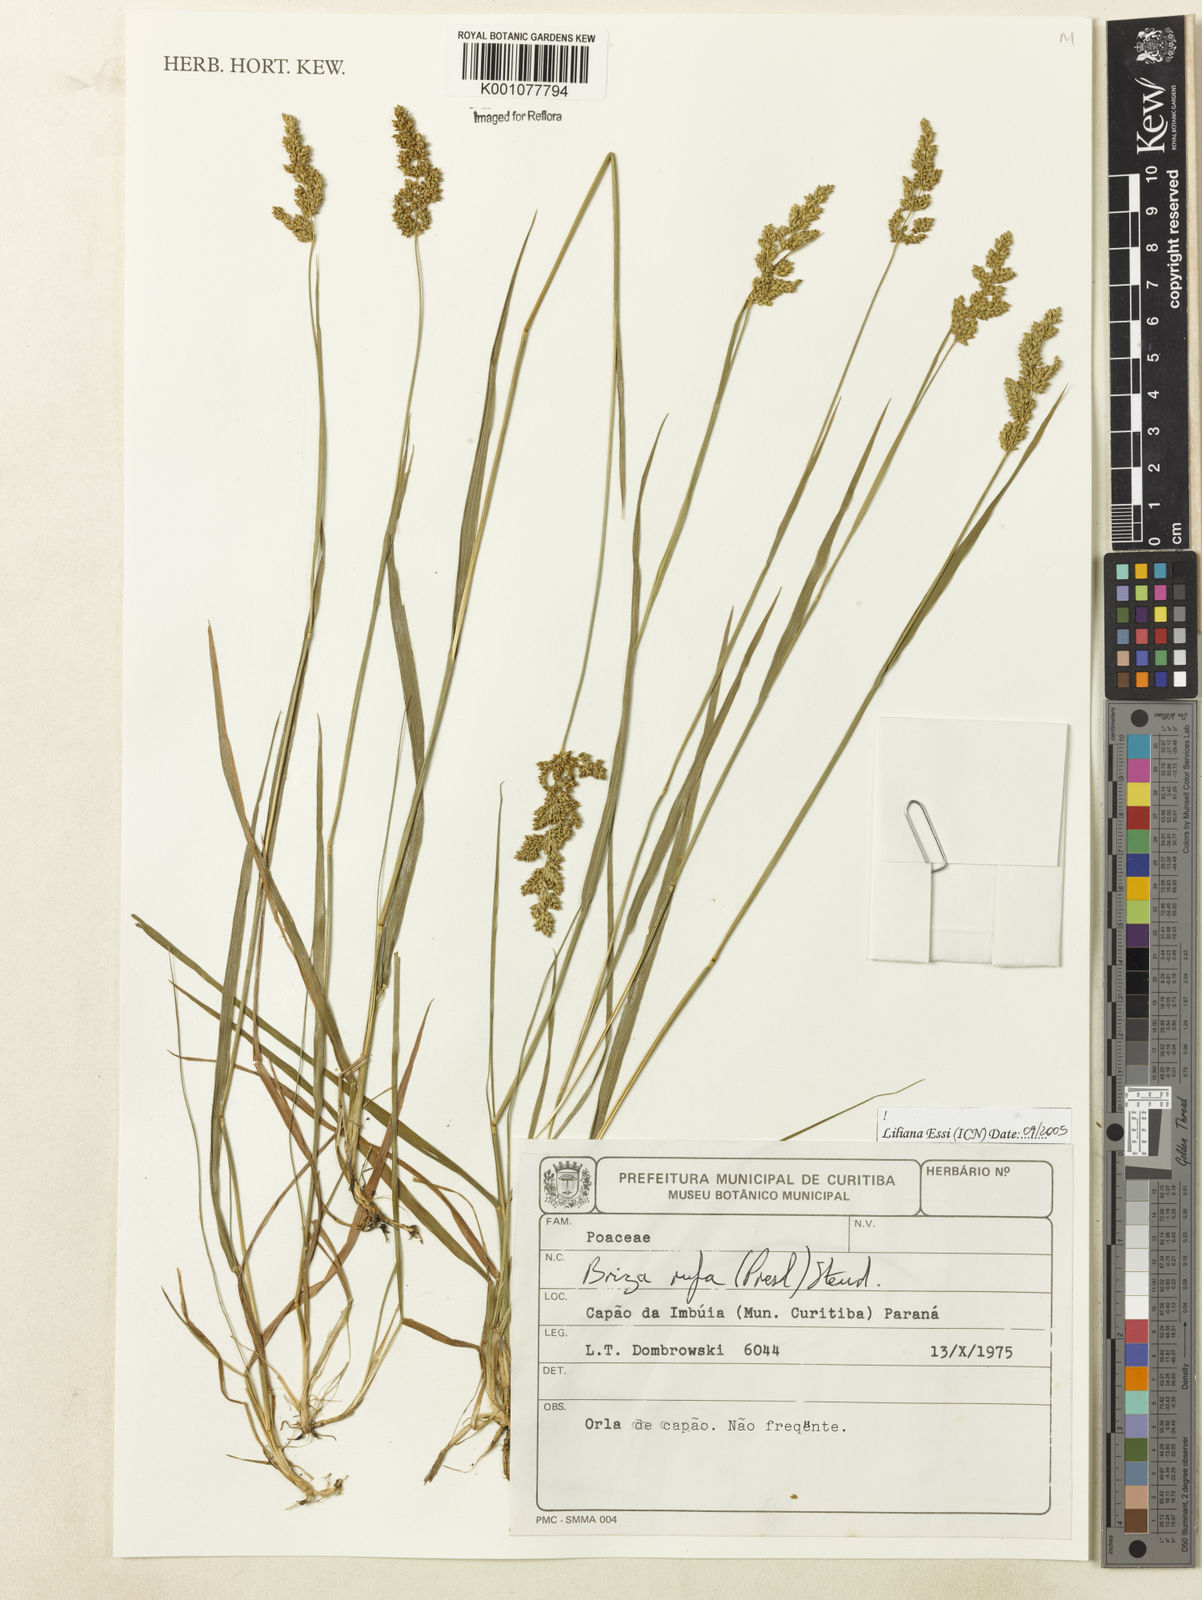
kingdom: Plantae
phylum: Tracheophyta
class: Liliopsida
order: Poales
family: Poaceae
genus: Lombardochloa
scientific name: Lombardochloa rufa
